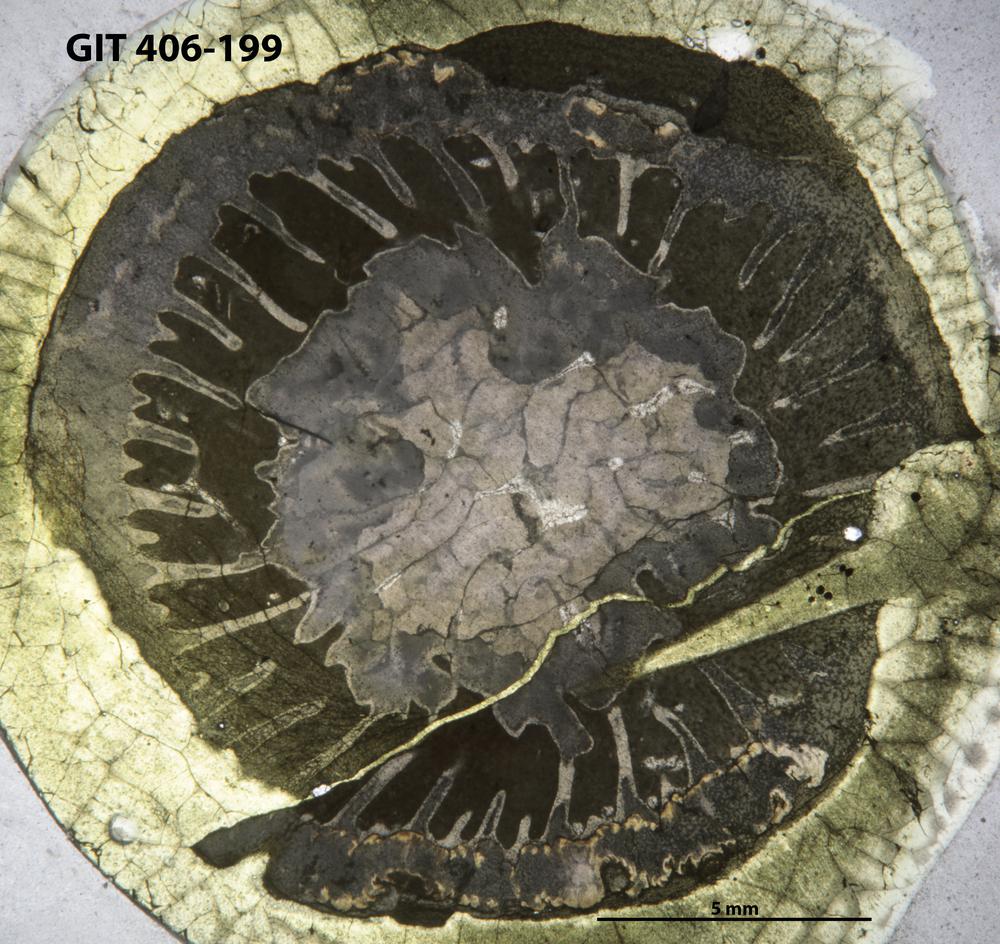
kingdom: Animalia
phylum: Cnidaria
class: Anthozoa
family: Streptelasmatidae
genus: Grewingkia
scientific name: Grewingkia
